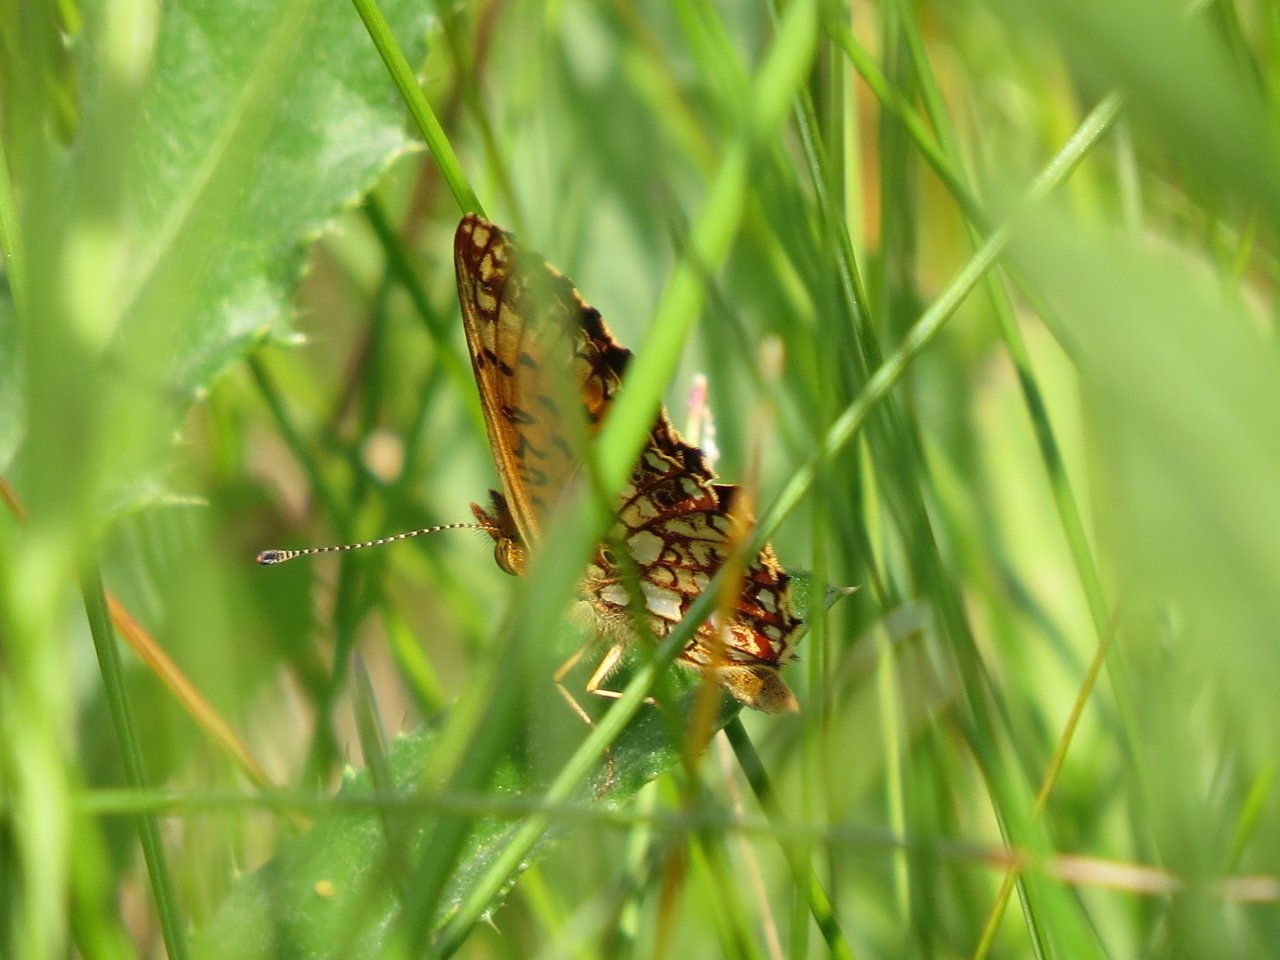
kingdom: Animalia
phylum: Arthropoda
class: Insecta
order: Lepidoptera
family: Nymphalidae
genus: Boloria
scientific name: Boloria selene
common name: Silver-bordered Fritillary
